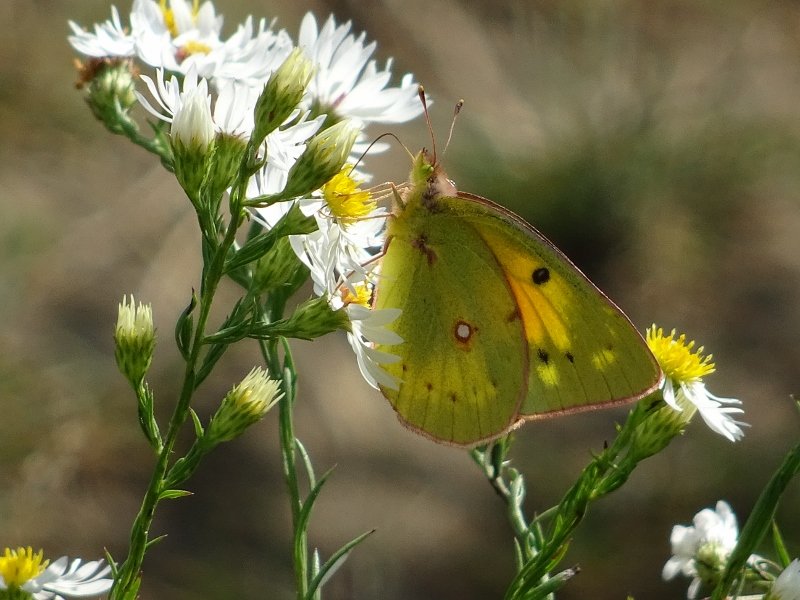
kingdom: Animalia
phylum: Arthropoda
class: Insecta
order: Lepidoptera
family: Pieridae
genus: Colias
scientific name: Colias eurytheme
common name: Orange Sulphur
